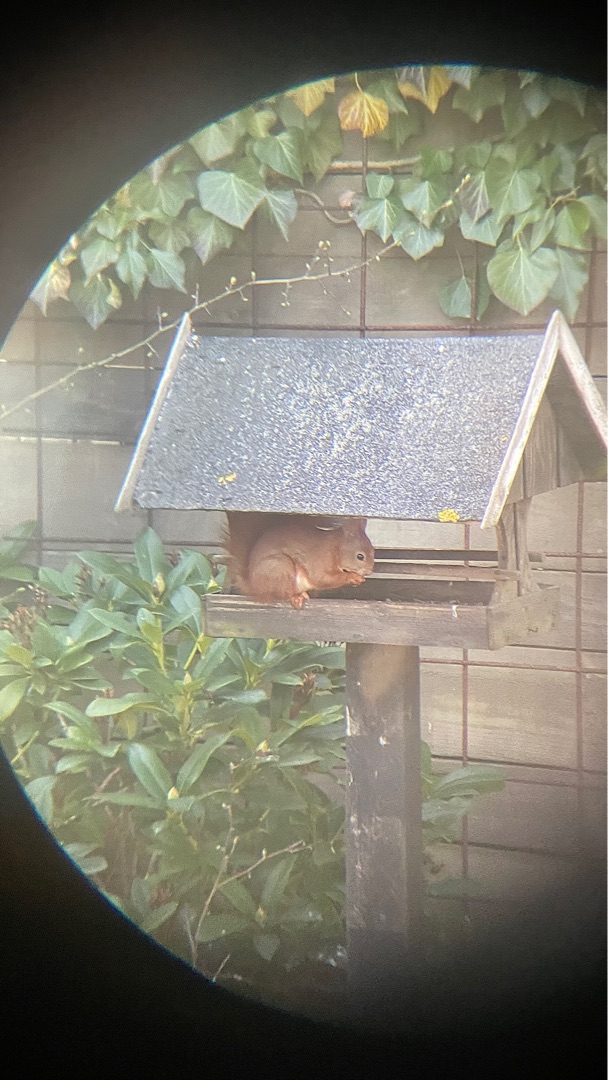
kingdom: Animalia
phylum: Chordata
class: Mammalia
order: Rodentia
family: Sciuridae
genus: Sciurus
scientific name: Sciurus vulgaris
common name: Egern
